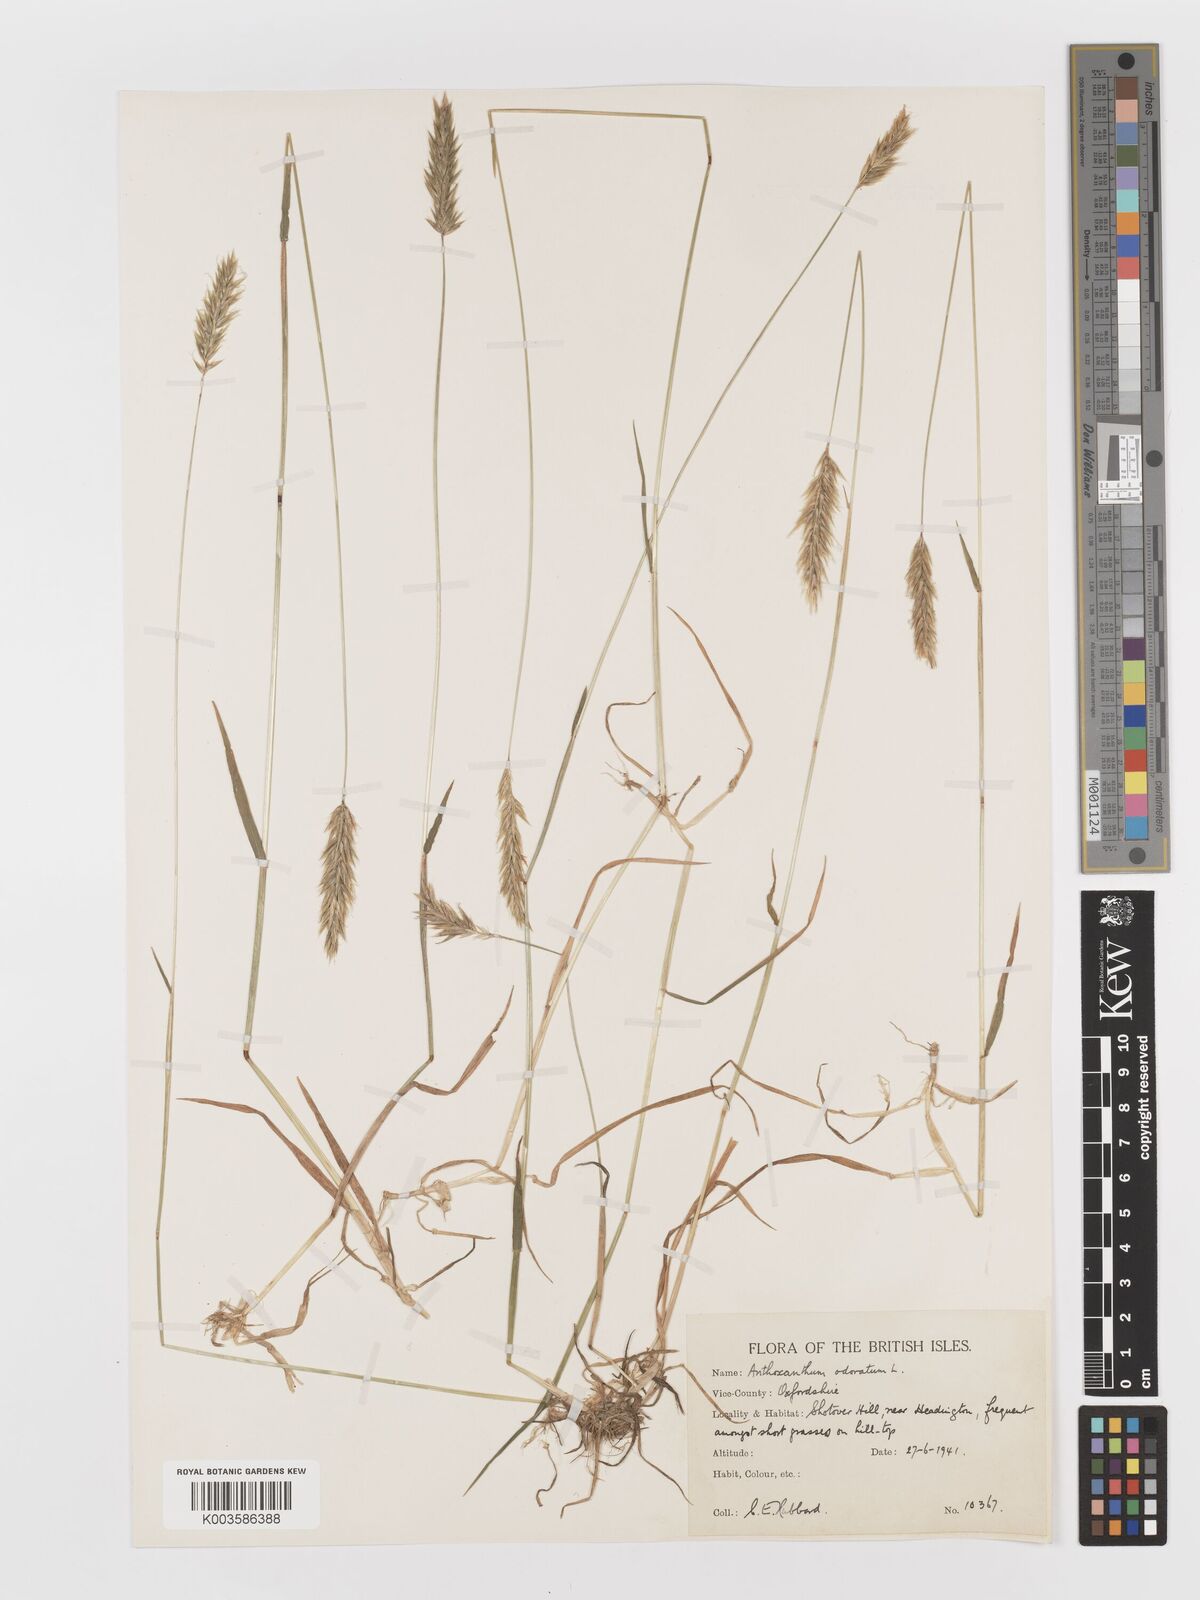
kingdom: Plantae
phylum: Tracheophyta
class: Liliopsida
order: Poales
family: Poaceae
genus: Anthoxanthum
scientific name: Anthoxanthum odoratum
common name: Sweet vernalgrass
